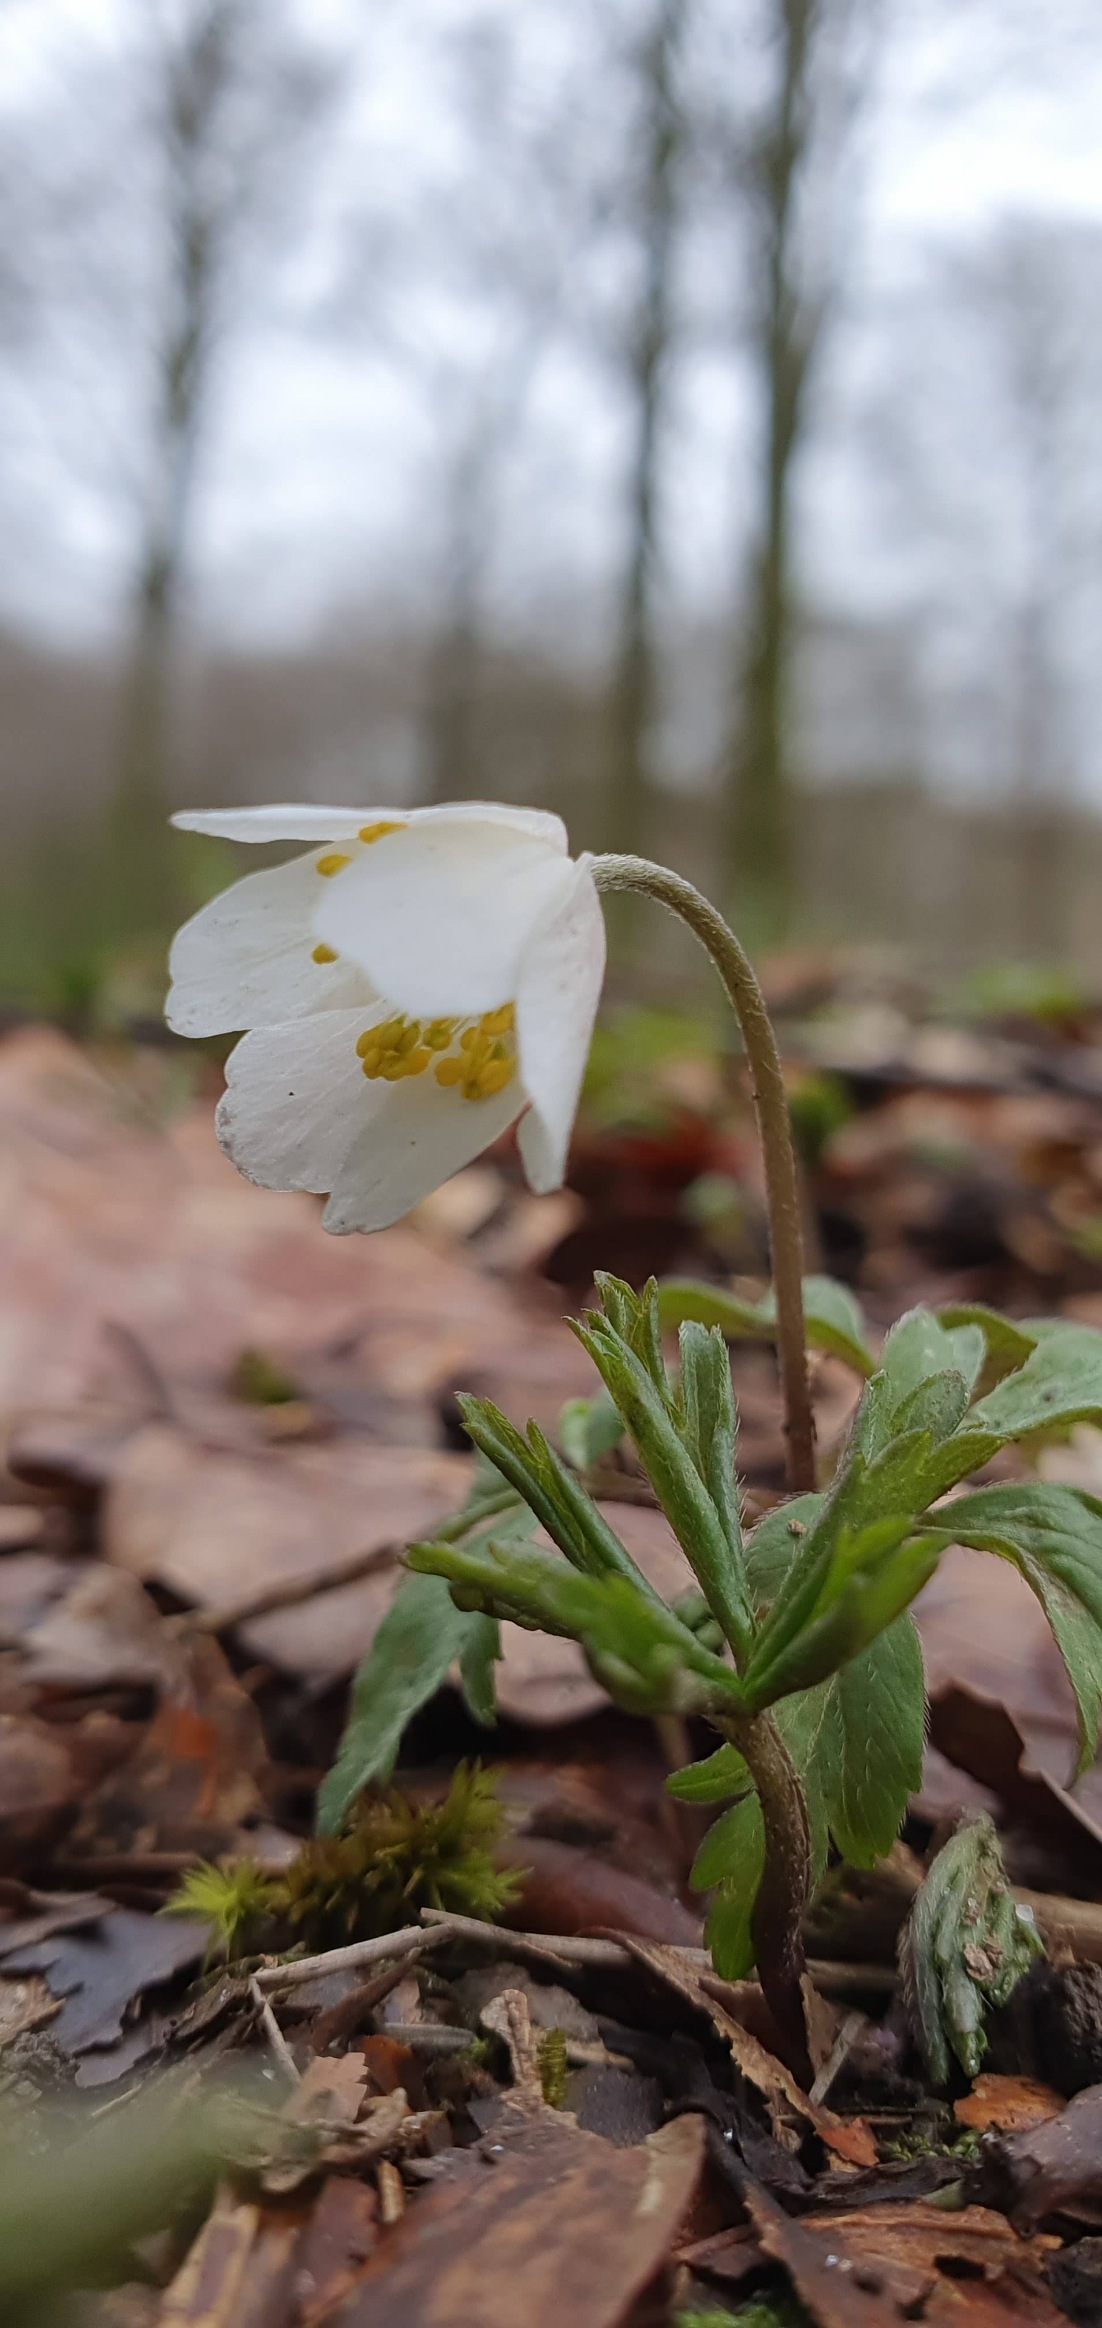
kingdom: Plantae
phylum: Tracheophyta
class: Magnoliopsida
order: Ranunculales
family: Ranunculaceae
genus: Anemone
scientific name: Anemone nemorosa
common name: Hvid anemone
